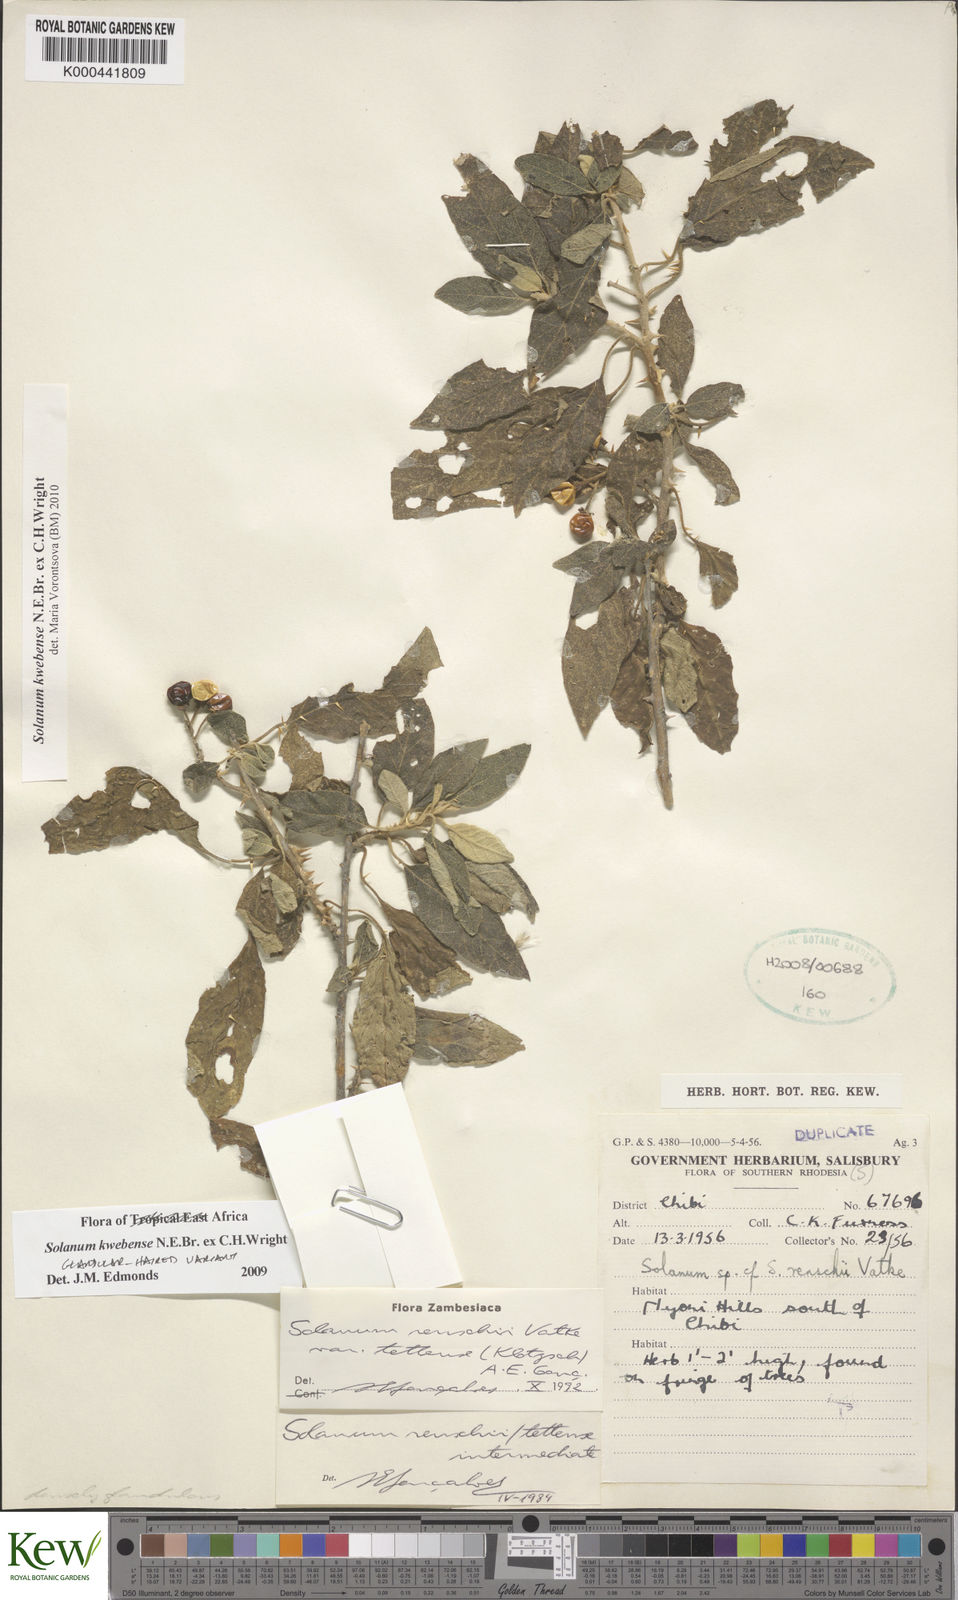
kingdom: Plantae
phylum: Tracheophyta
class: Magnoliopsida
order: Solanales
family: Solanaceae
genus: Solanum
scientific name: Solanum tettense
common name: Mozambique bitter apple
